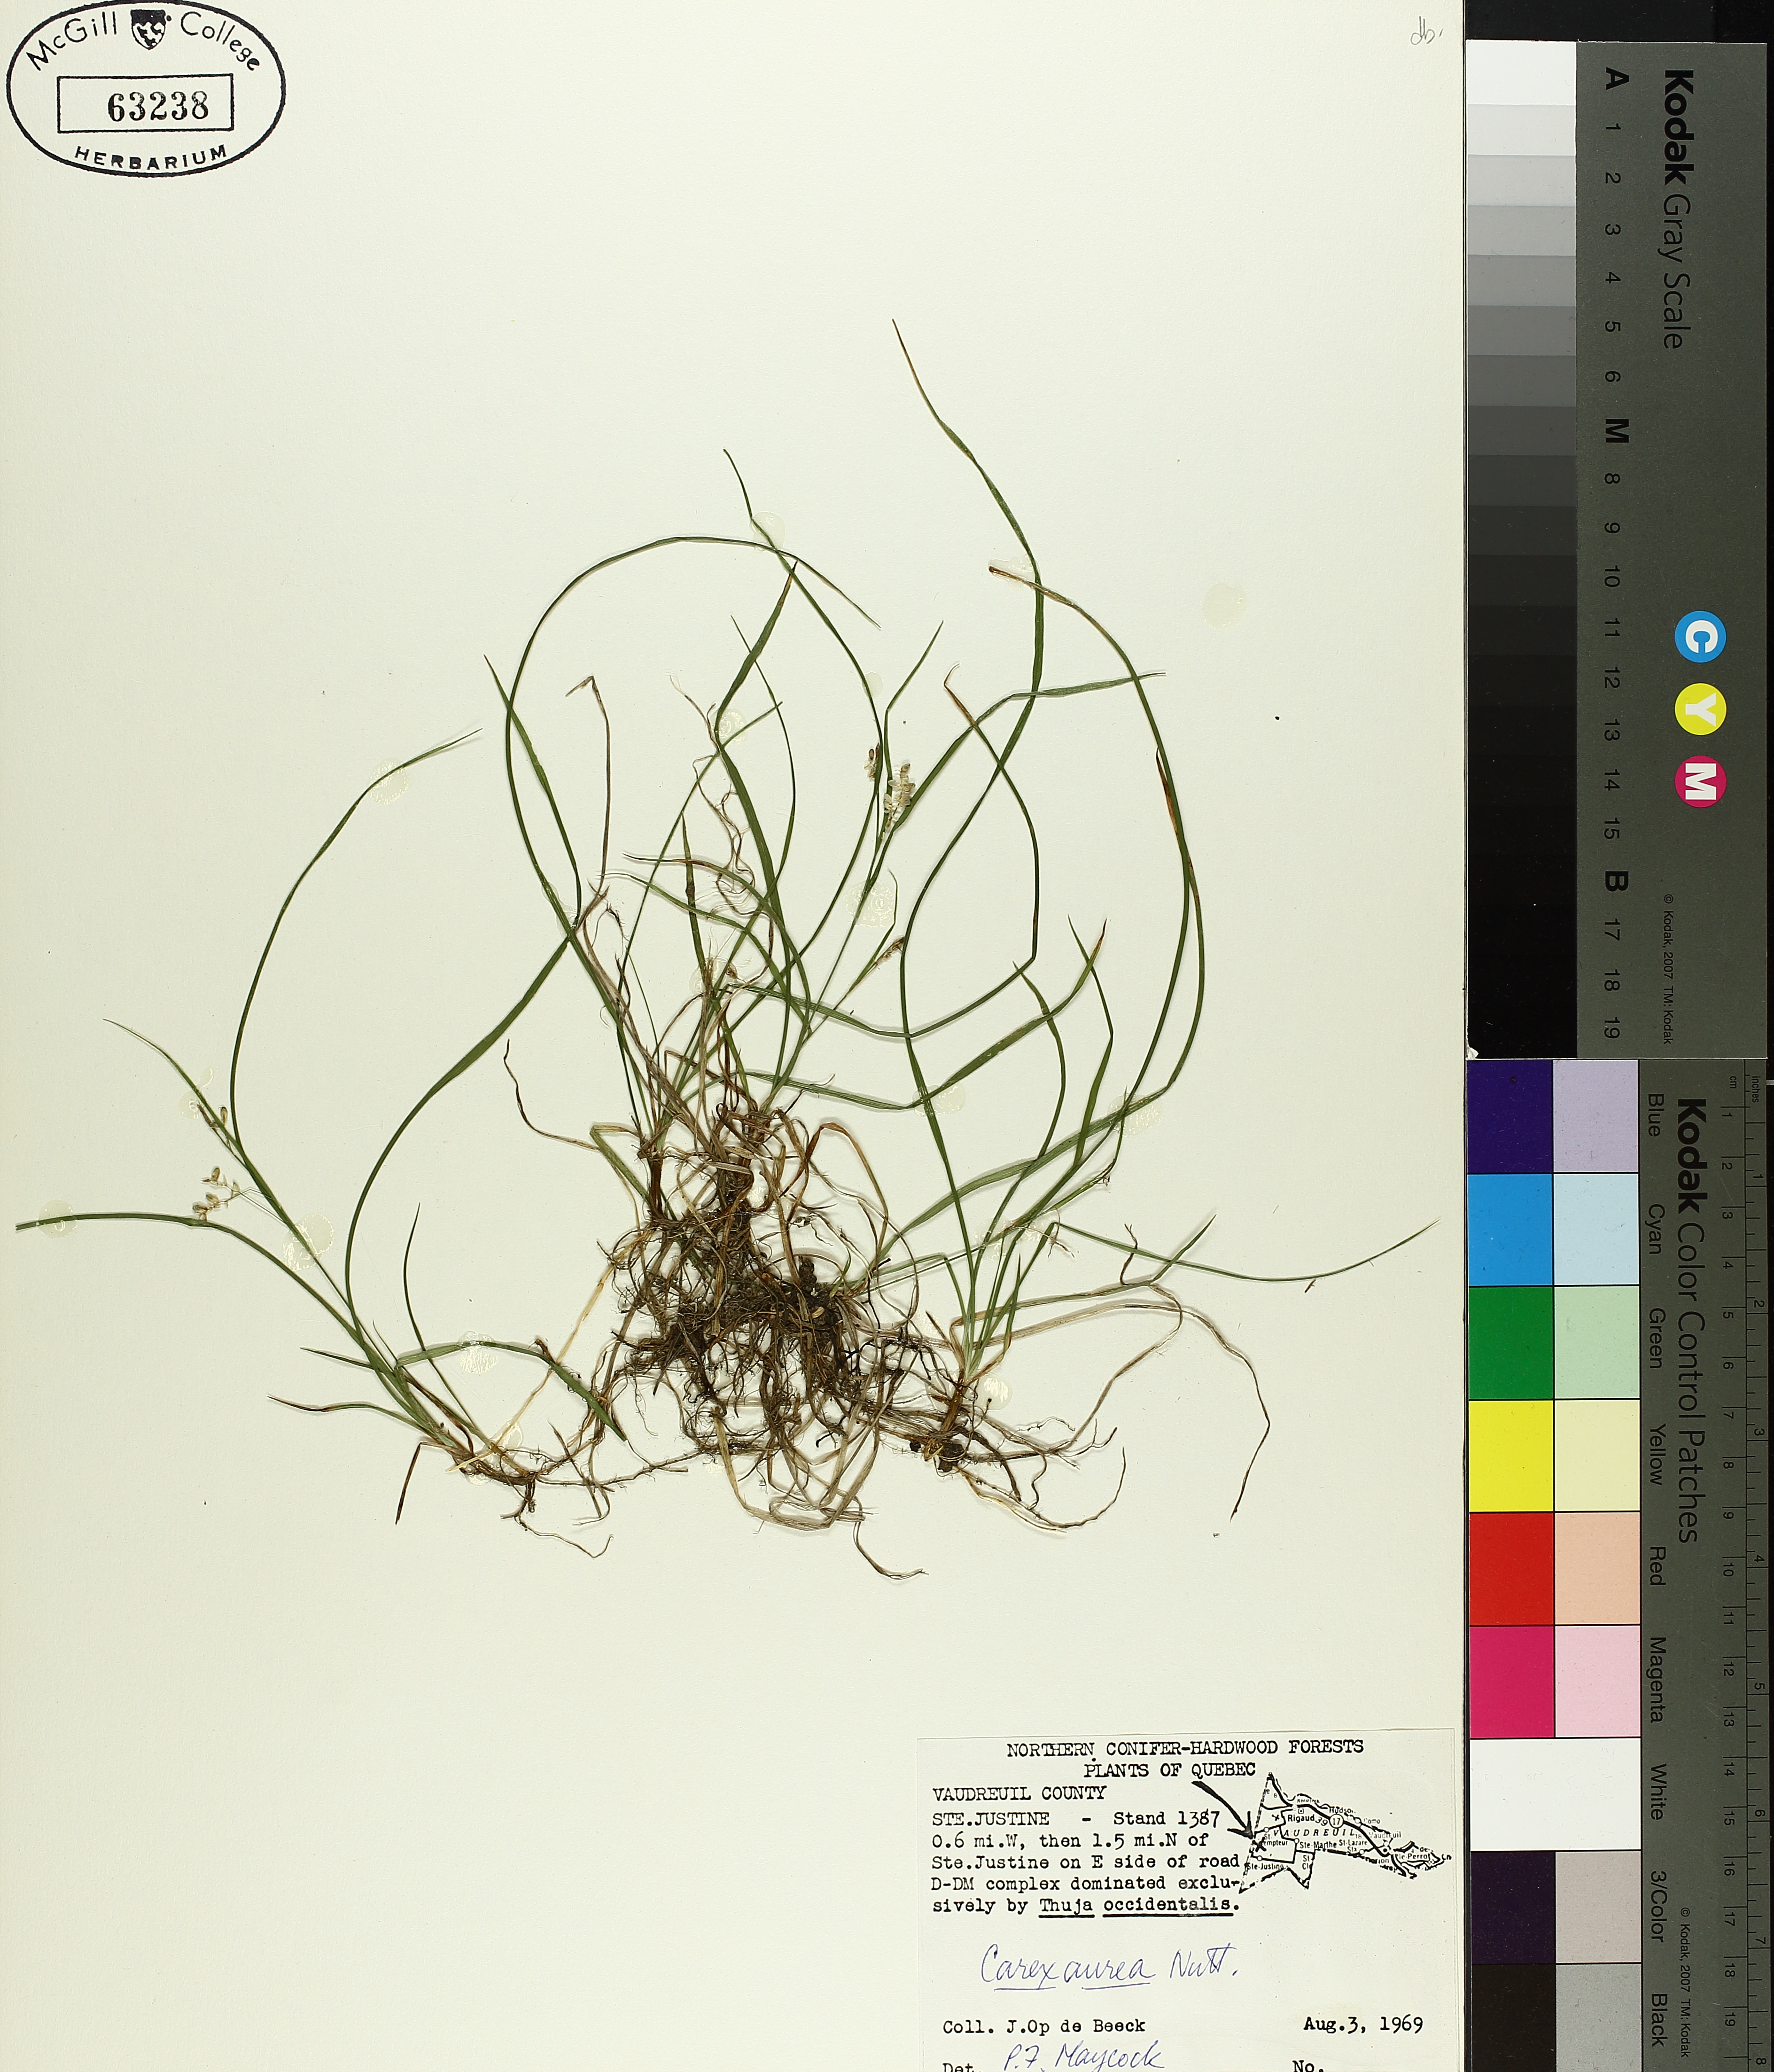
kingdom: Plantae
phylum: Tracheophyta
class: Liliopsida
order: Poales
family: Cyperaceae
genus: Carex
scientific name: Carex aurea
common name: Golden sedge
